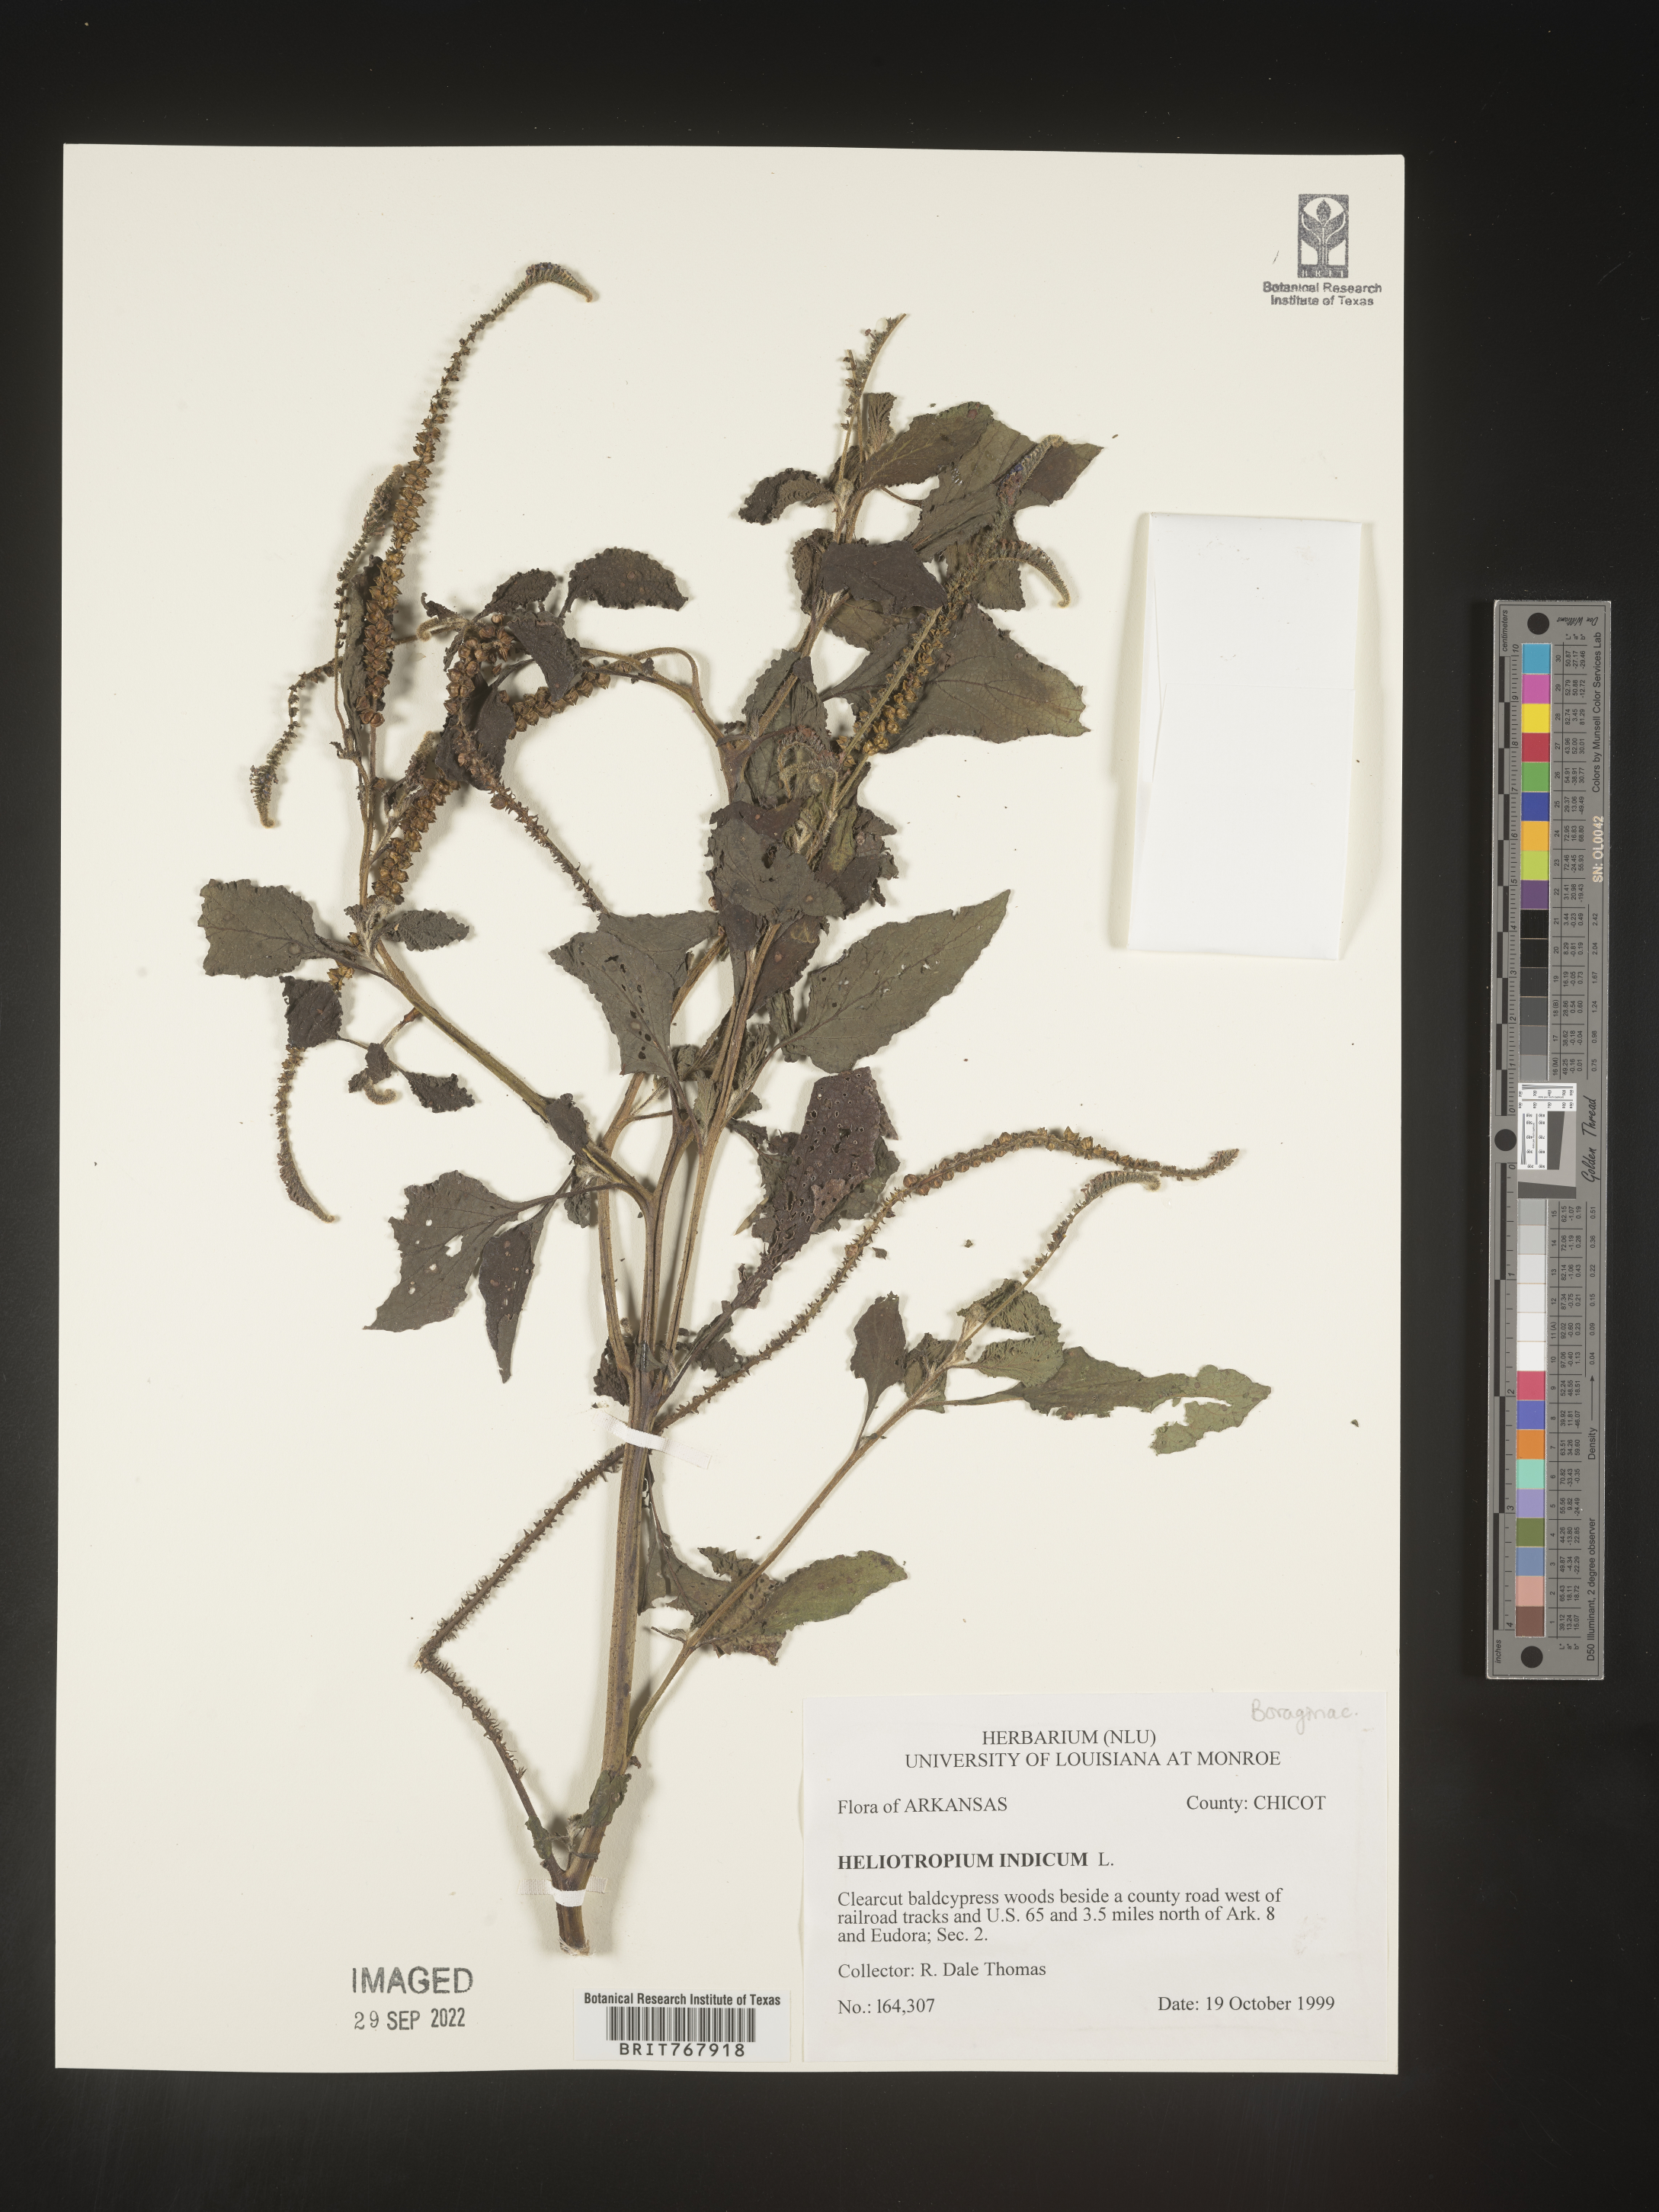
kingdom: Plantae
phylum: Tracheophyta
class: Magnoliopsida
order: Boraginales
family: Heliotropiaceae
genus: Heliotropium
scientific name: Heliotropium indicum
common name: Indian heliotrope
